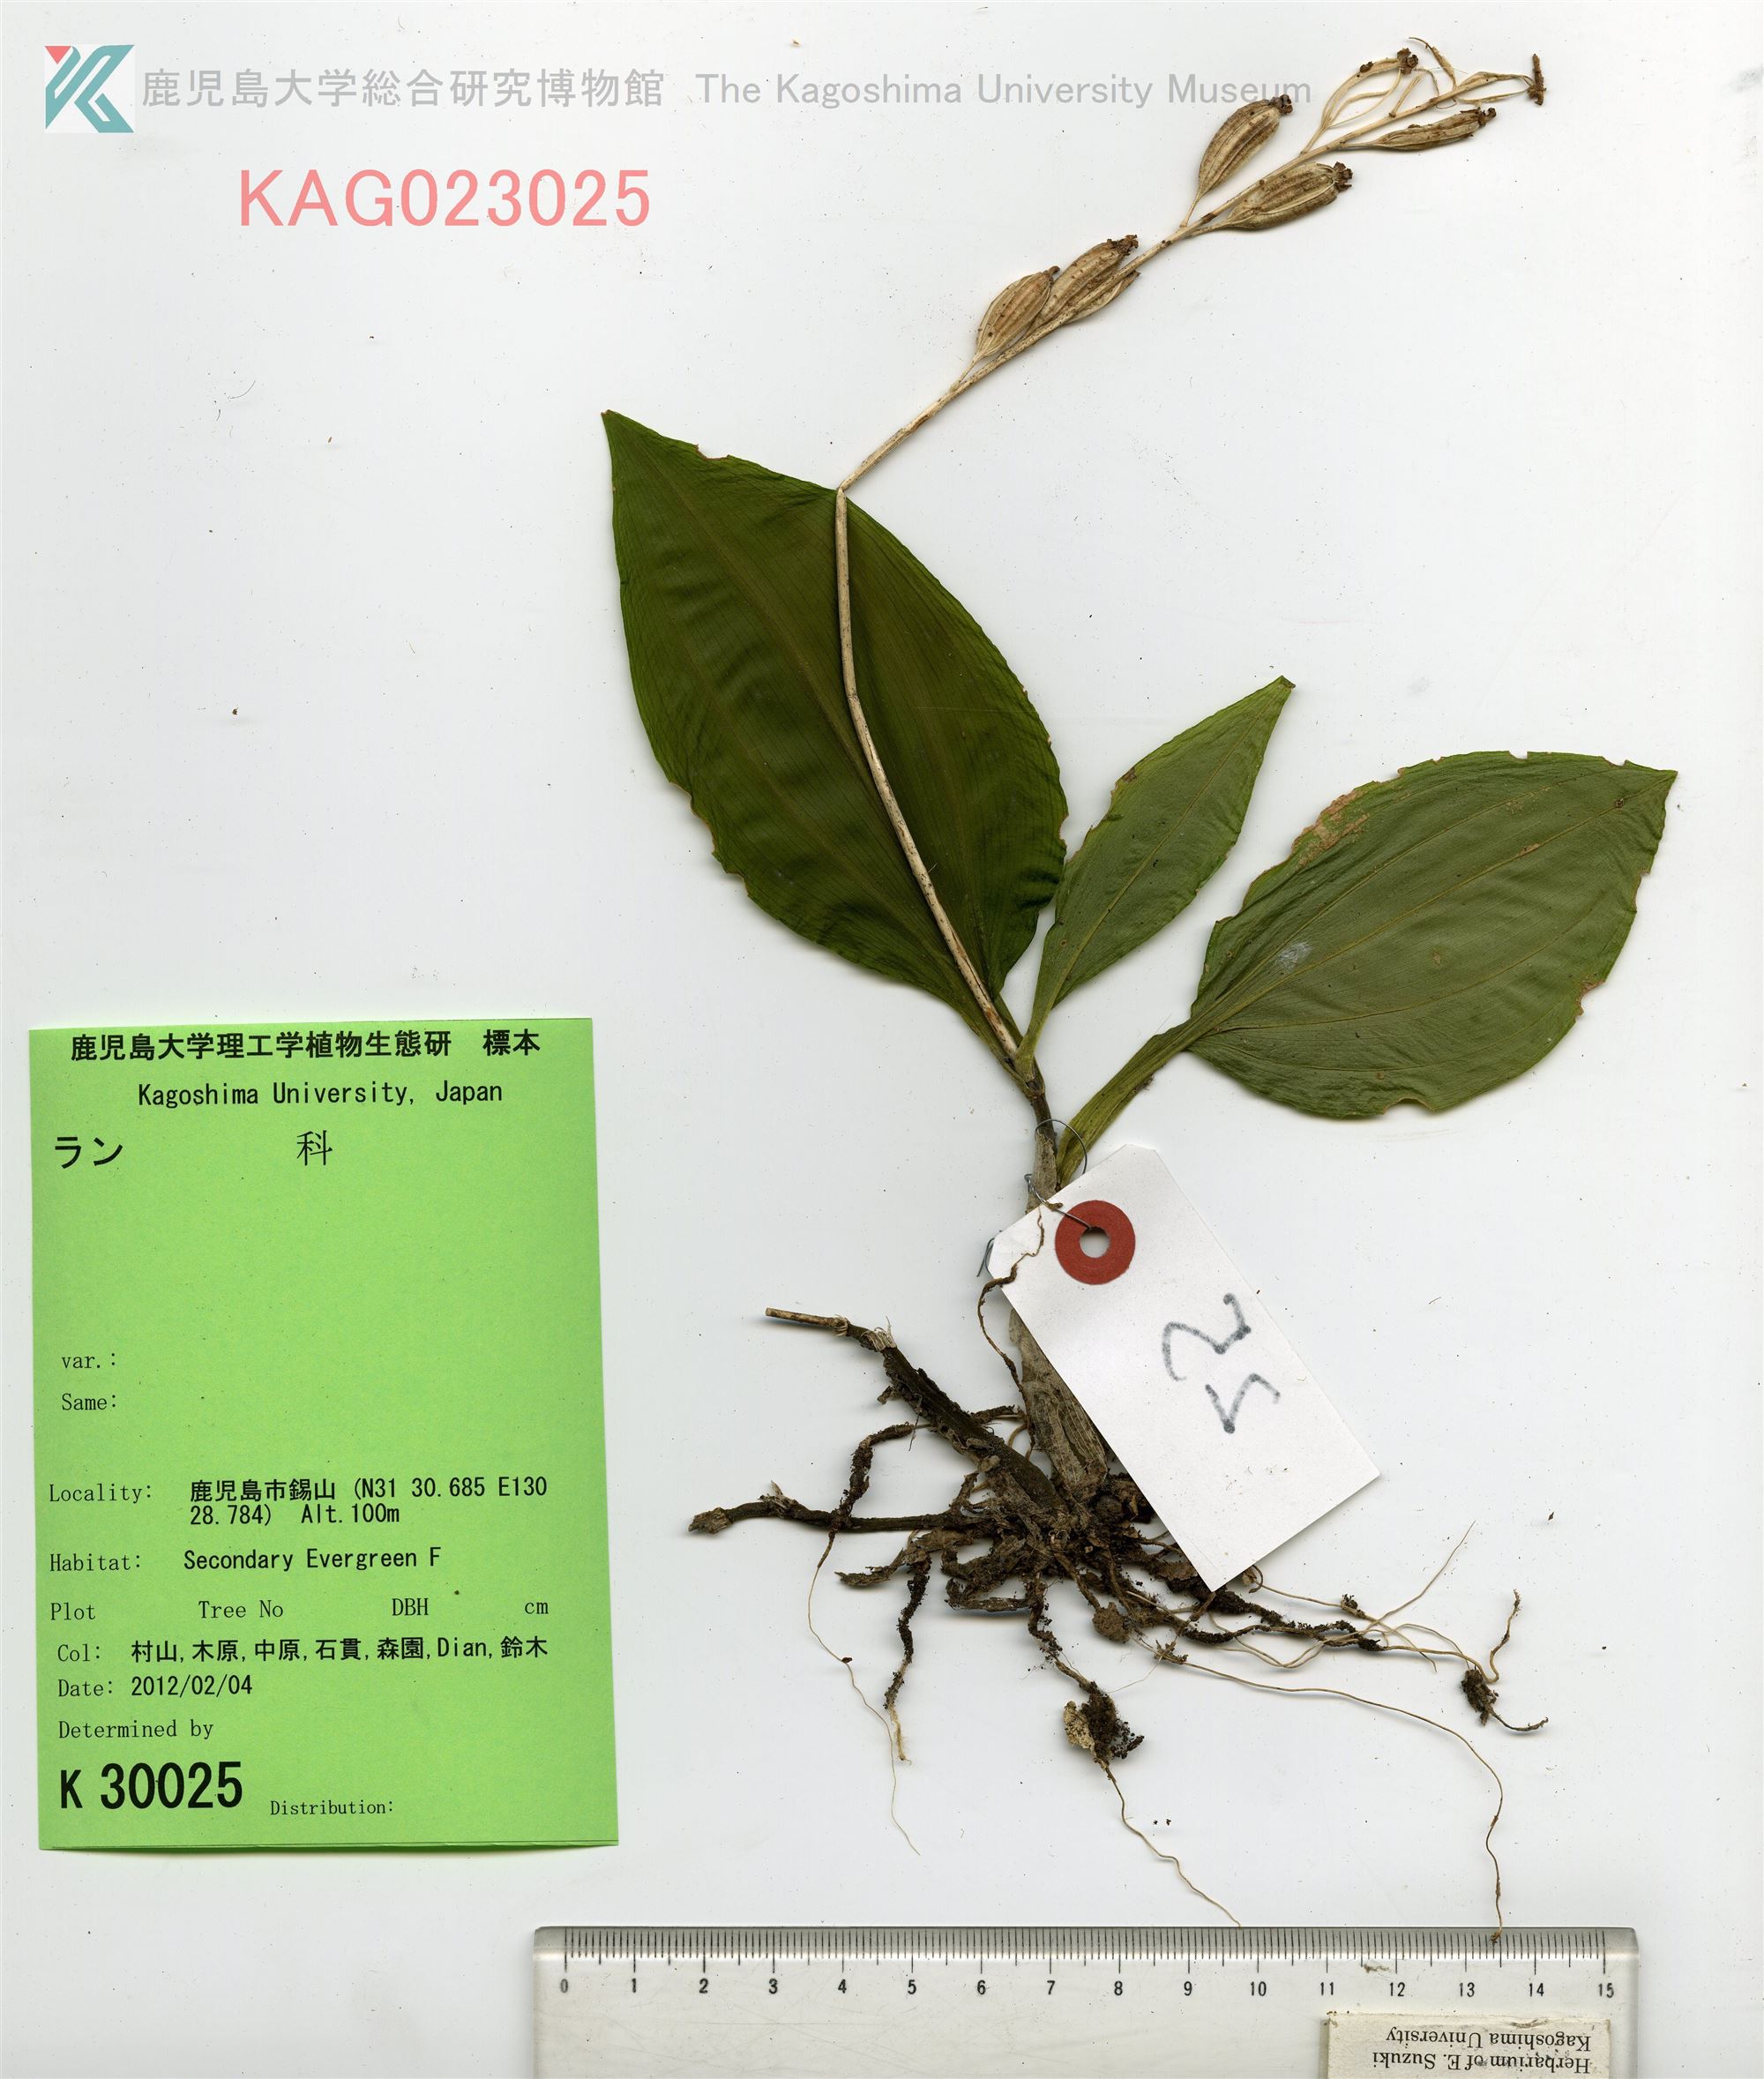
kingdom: Plantae
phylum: Tracheophyta
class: Liliopsida
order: Asparagales
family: Orchidaceae
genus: Liparis
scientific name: Liparis formosana
